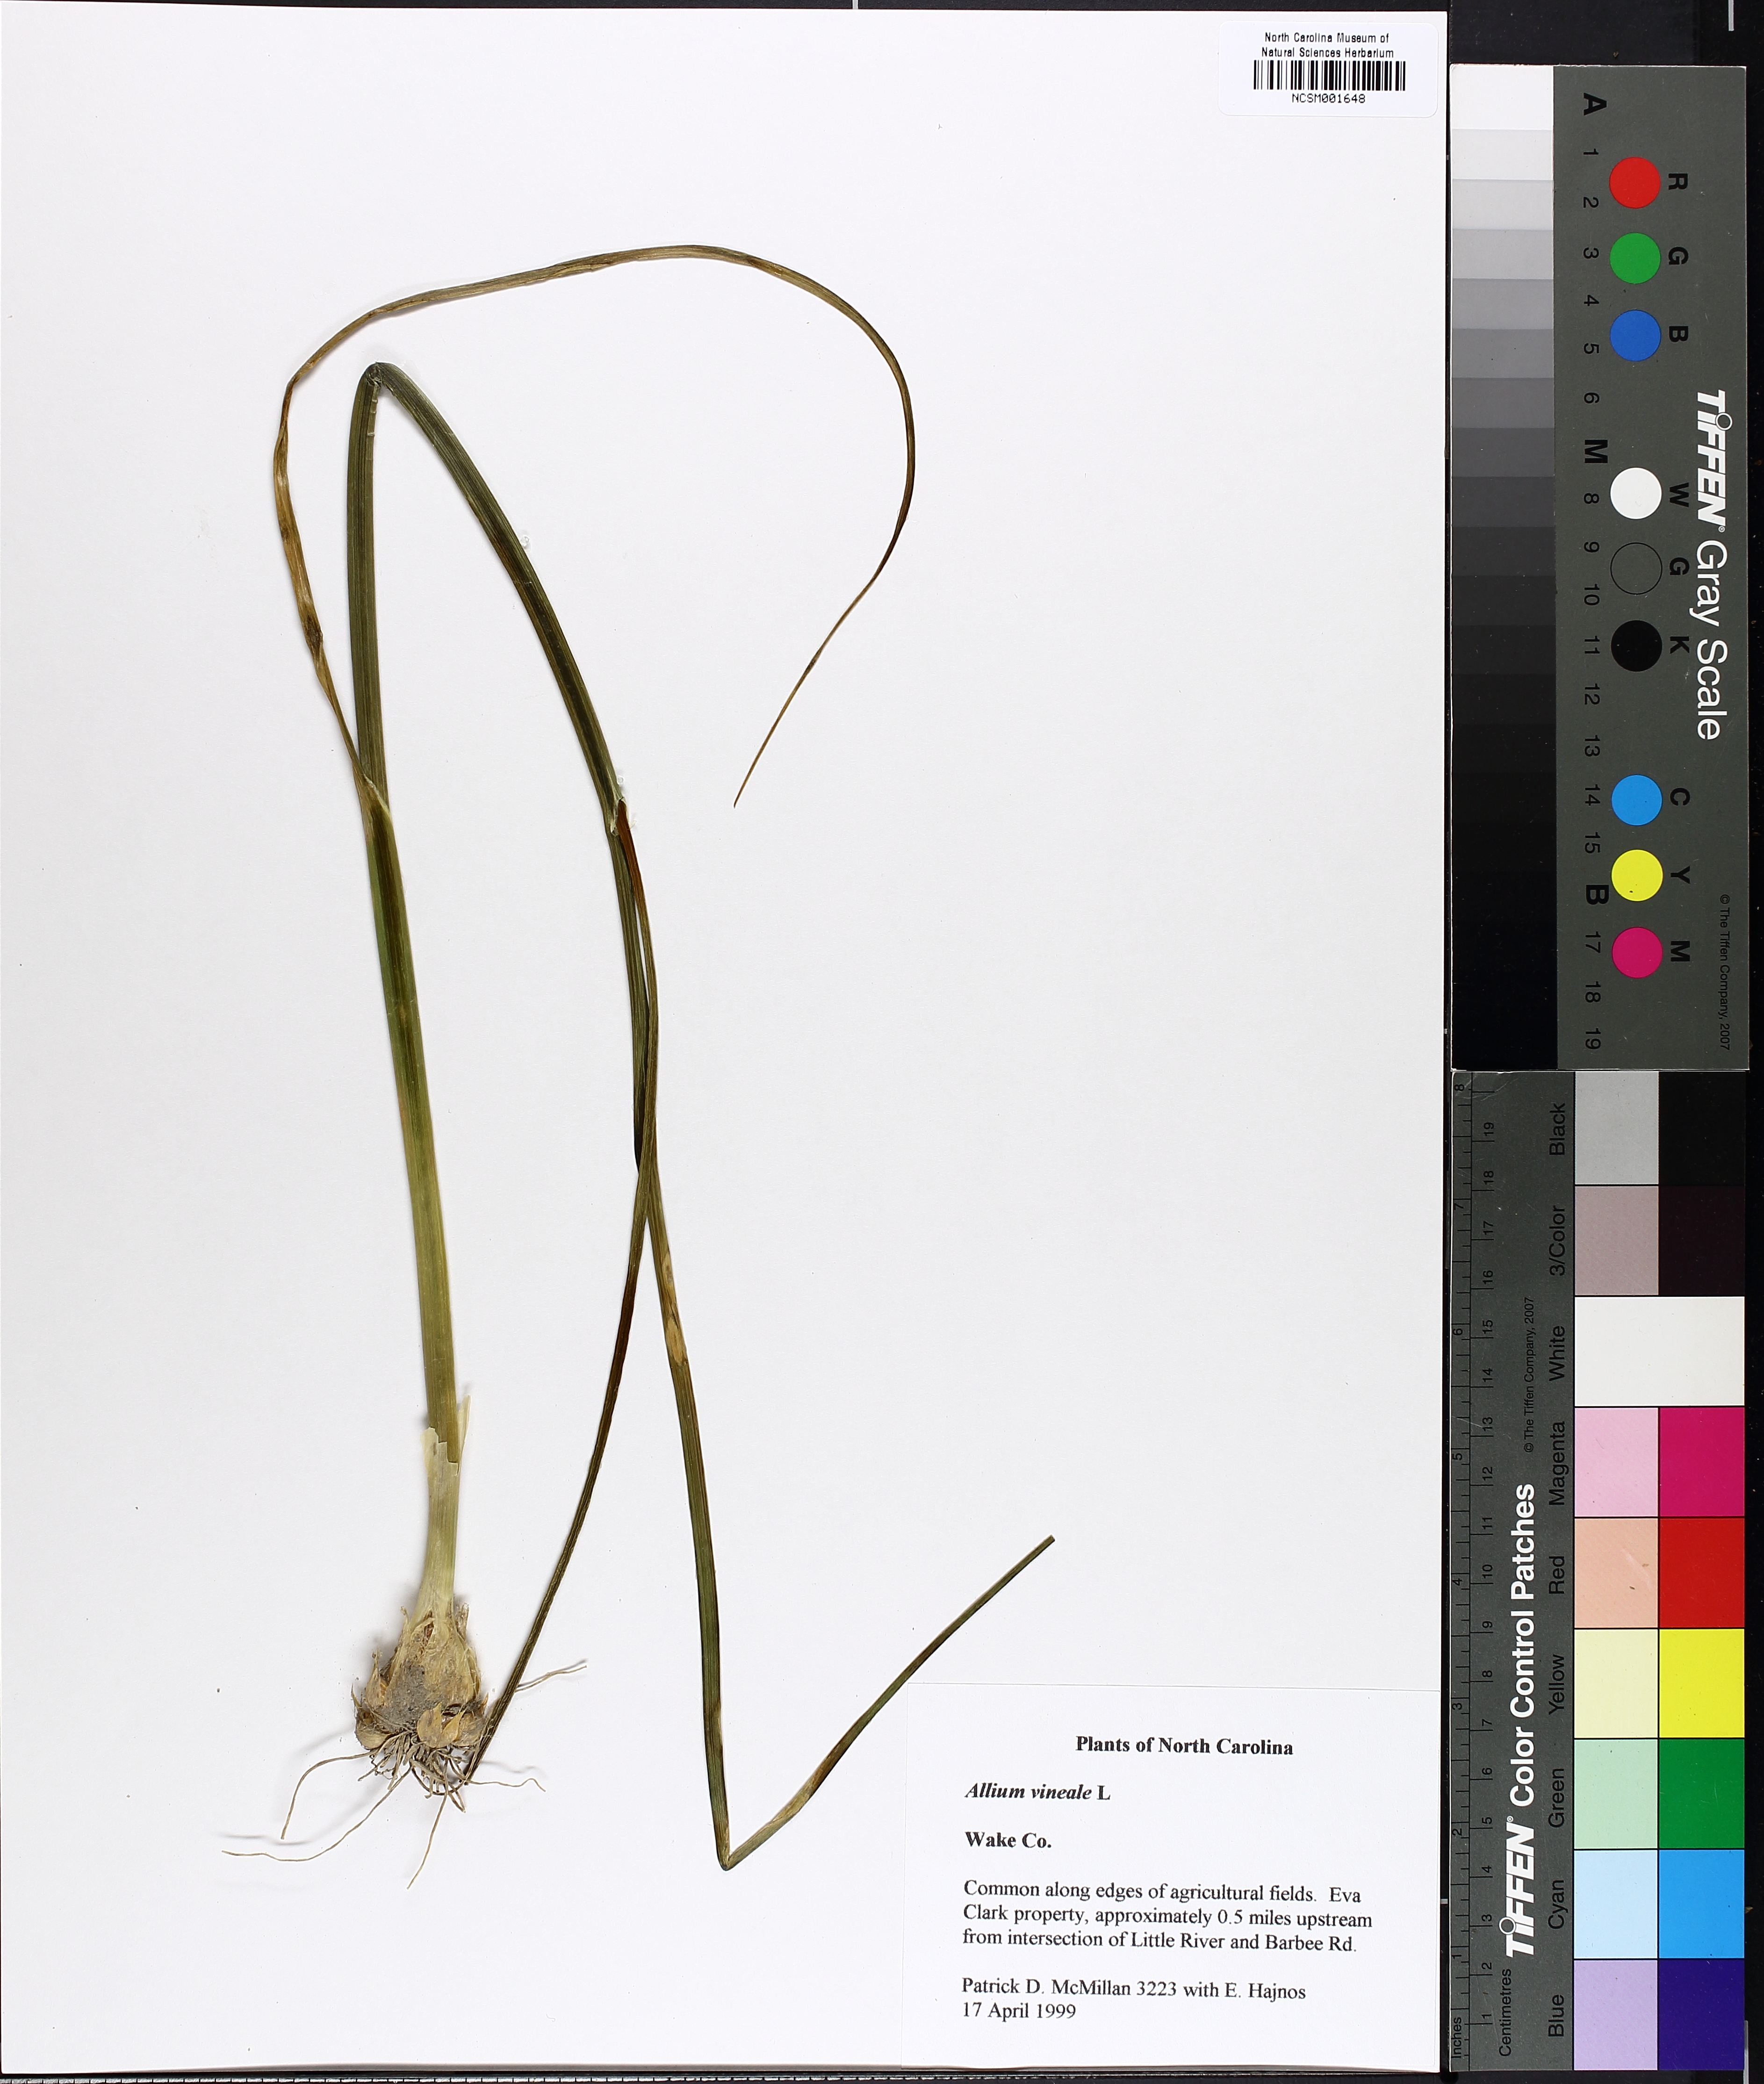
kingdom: Plantae
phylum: Tracheophyta
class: Liliopsida
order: Asparagales
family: Amaryllidaceae
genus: Allium
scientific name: Allium vineale
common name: Crow garlic
